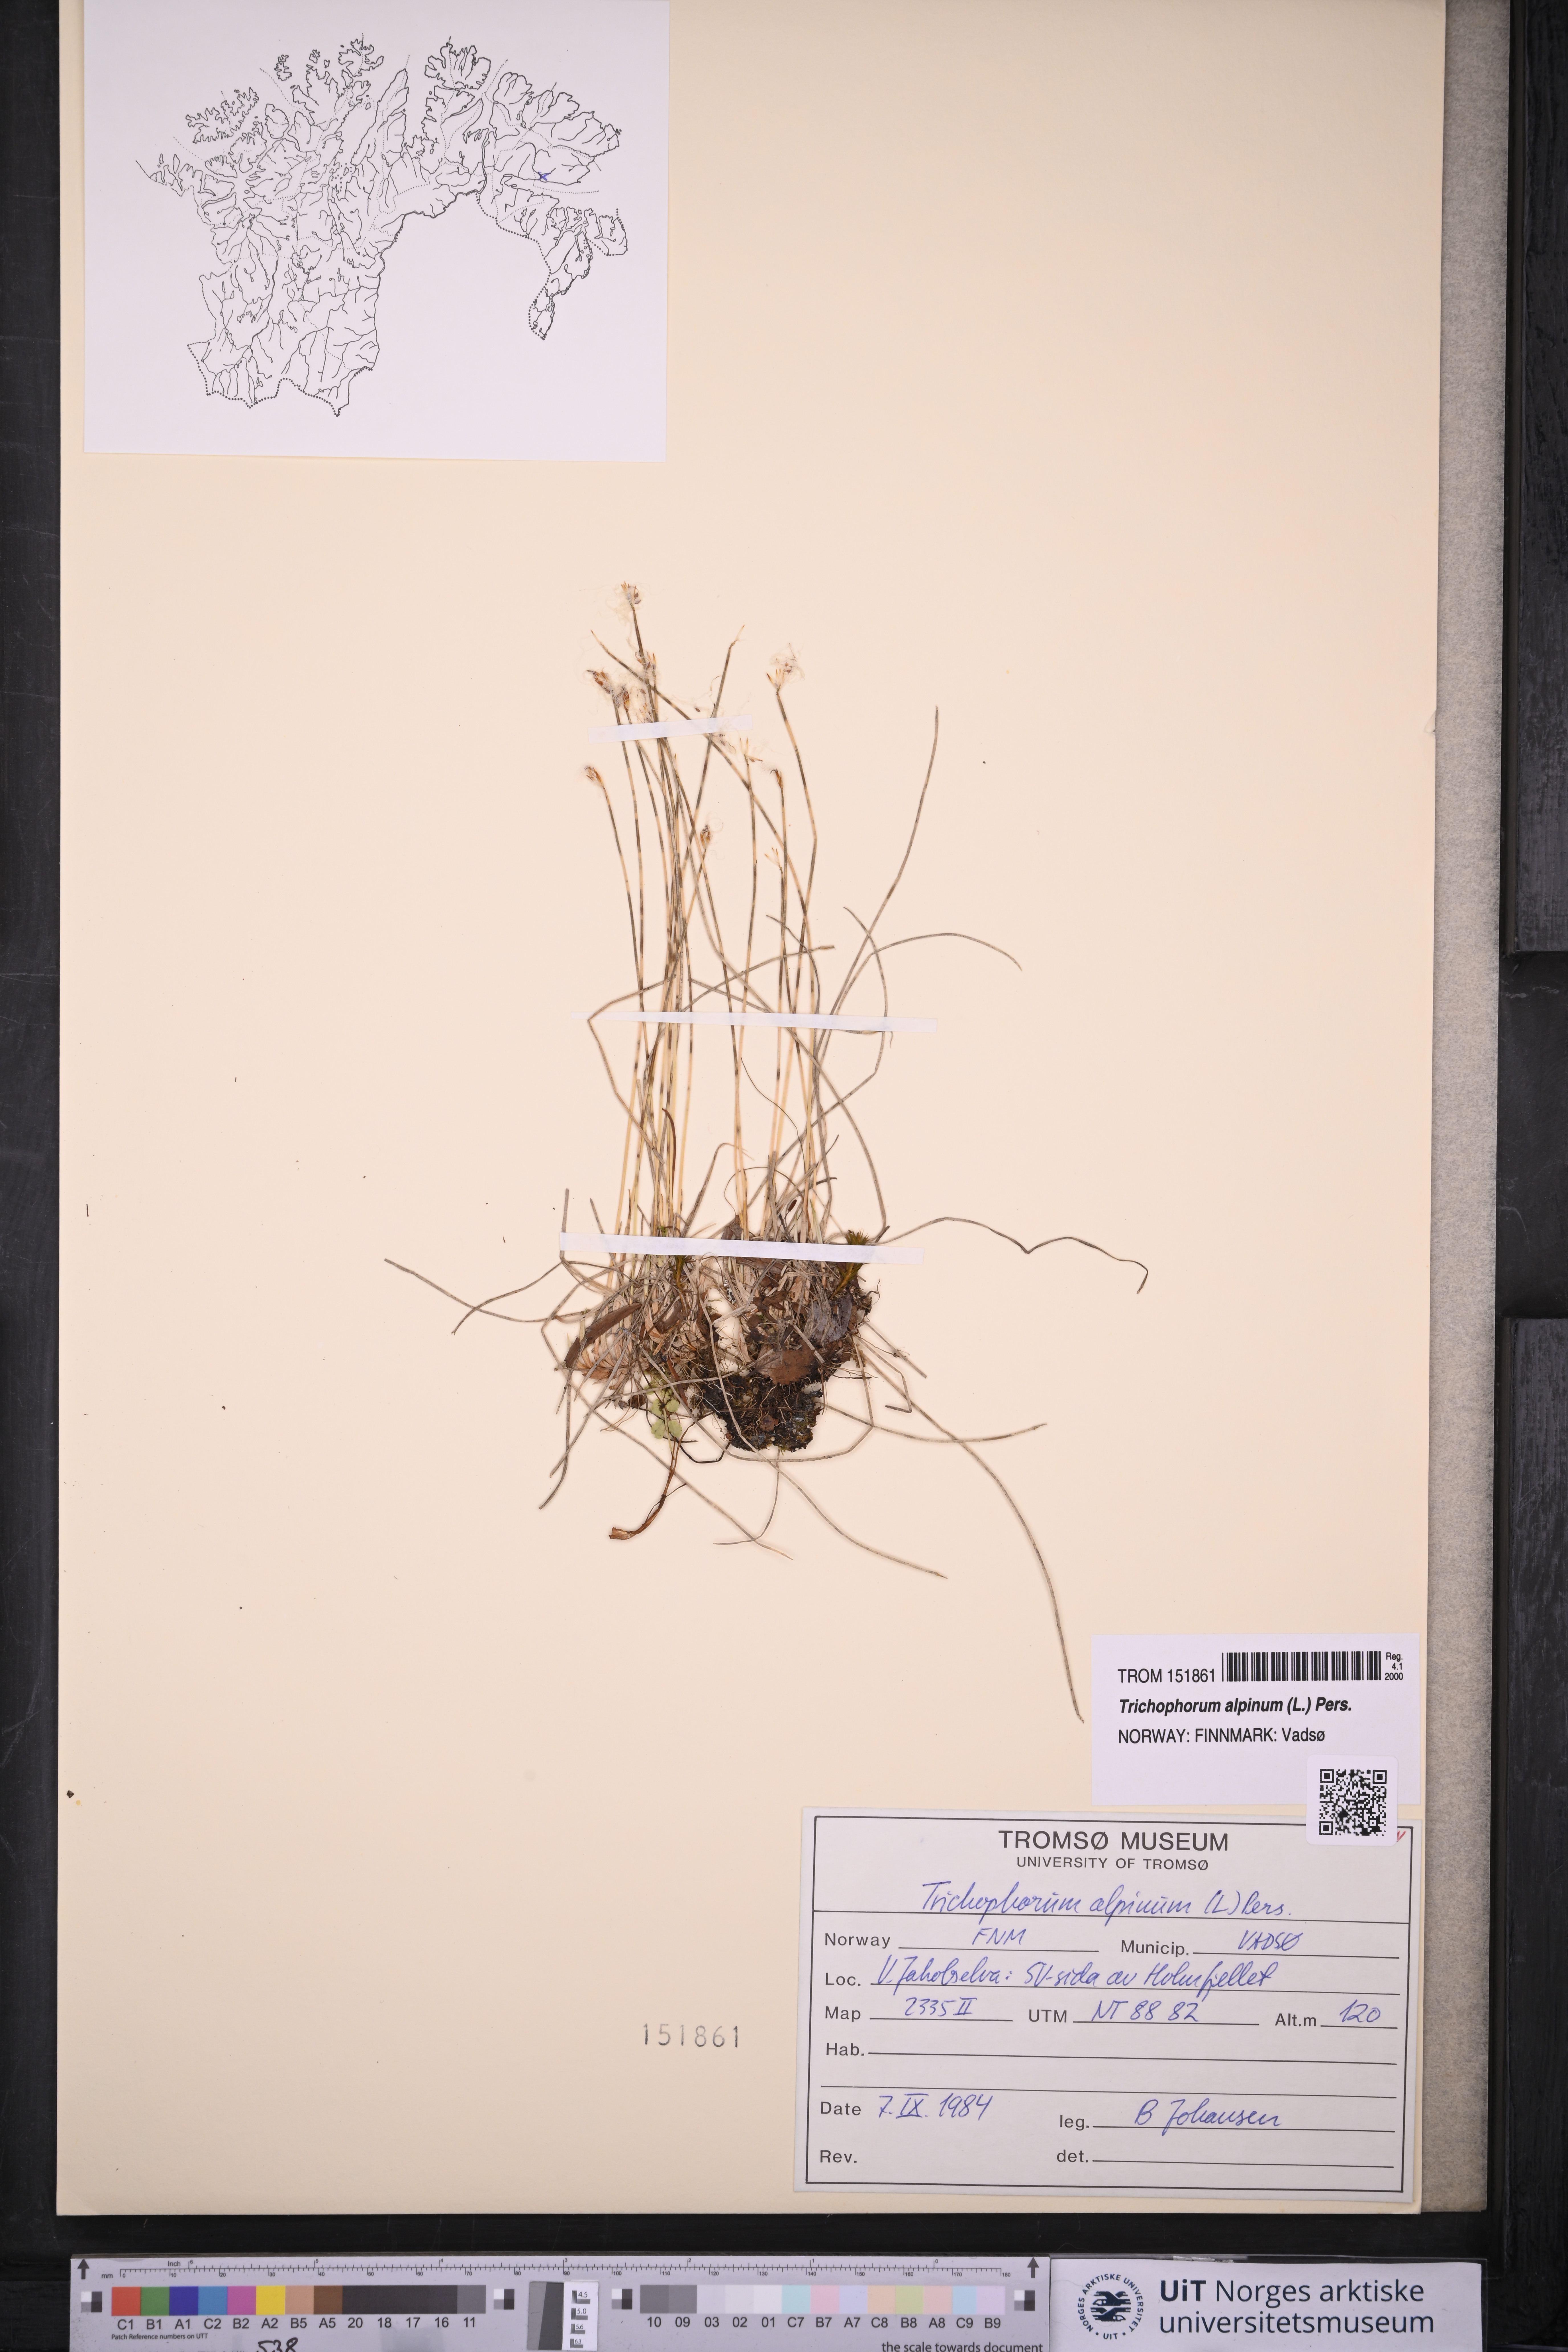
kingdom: Plantae
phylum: Tracheophyta
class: Liliopsida
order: Poales
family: Cyperaceae
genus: Trichophorum
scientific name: Trichophorum alpinum
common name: Alpine bulrush
